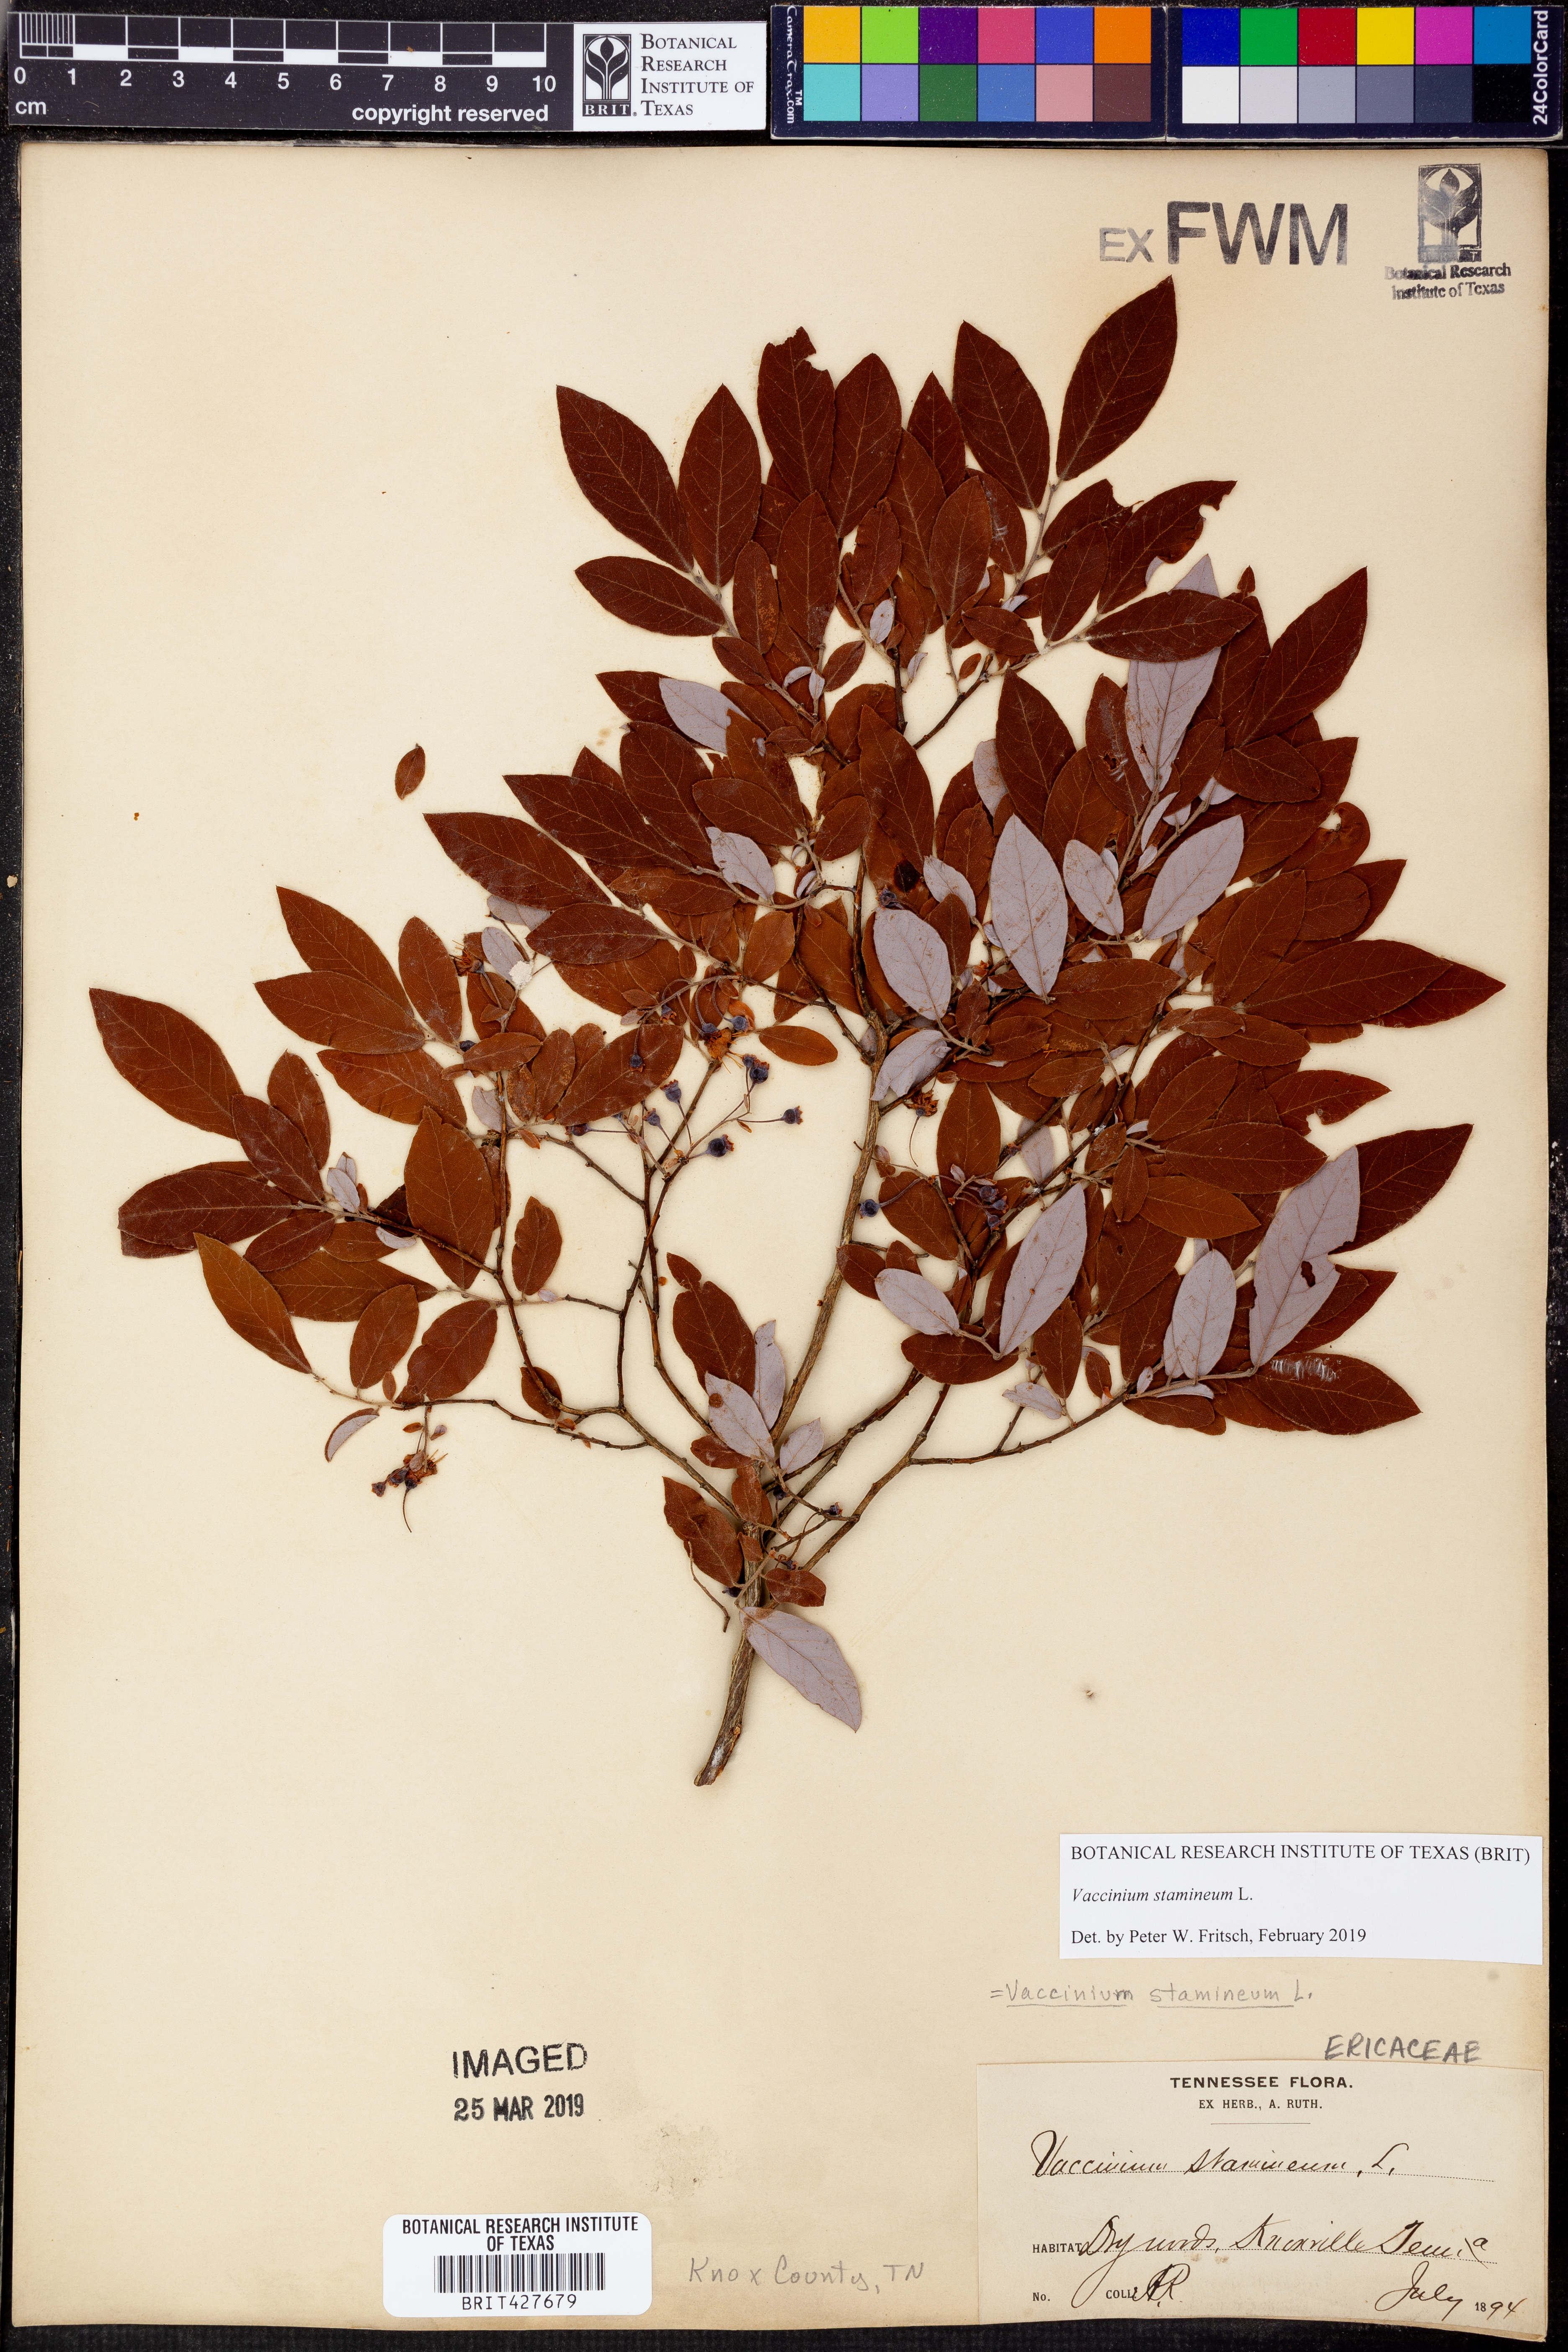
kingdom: Plantae
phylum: Tracheophyta
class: Magnoliopsida
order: Ericales
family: Ericaceae
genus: Vaccinium
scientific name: Vaccinium stamineum
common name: Deerberry
